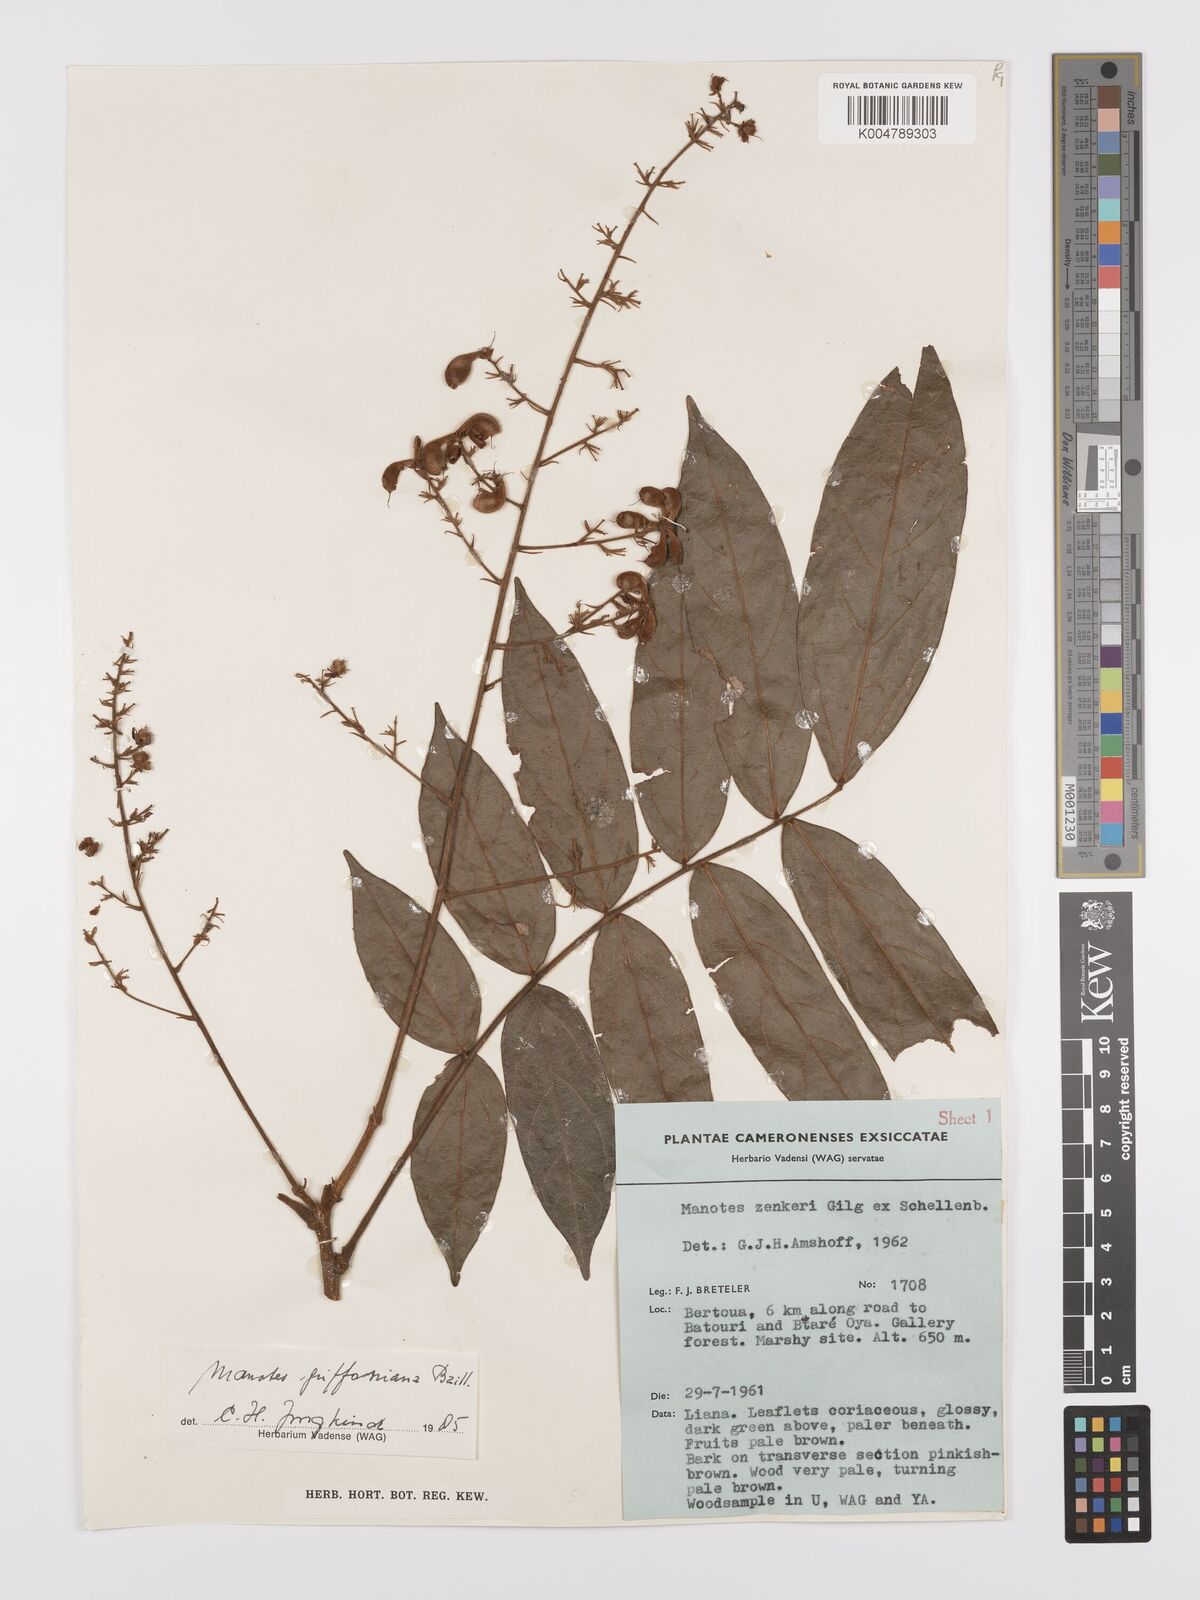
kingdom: Plantae
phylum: Tracheophyta
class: Magnoliopsida
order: Oxalidales
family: Connaraceae
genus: Manotes
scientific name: Manotes griffoniana
